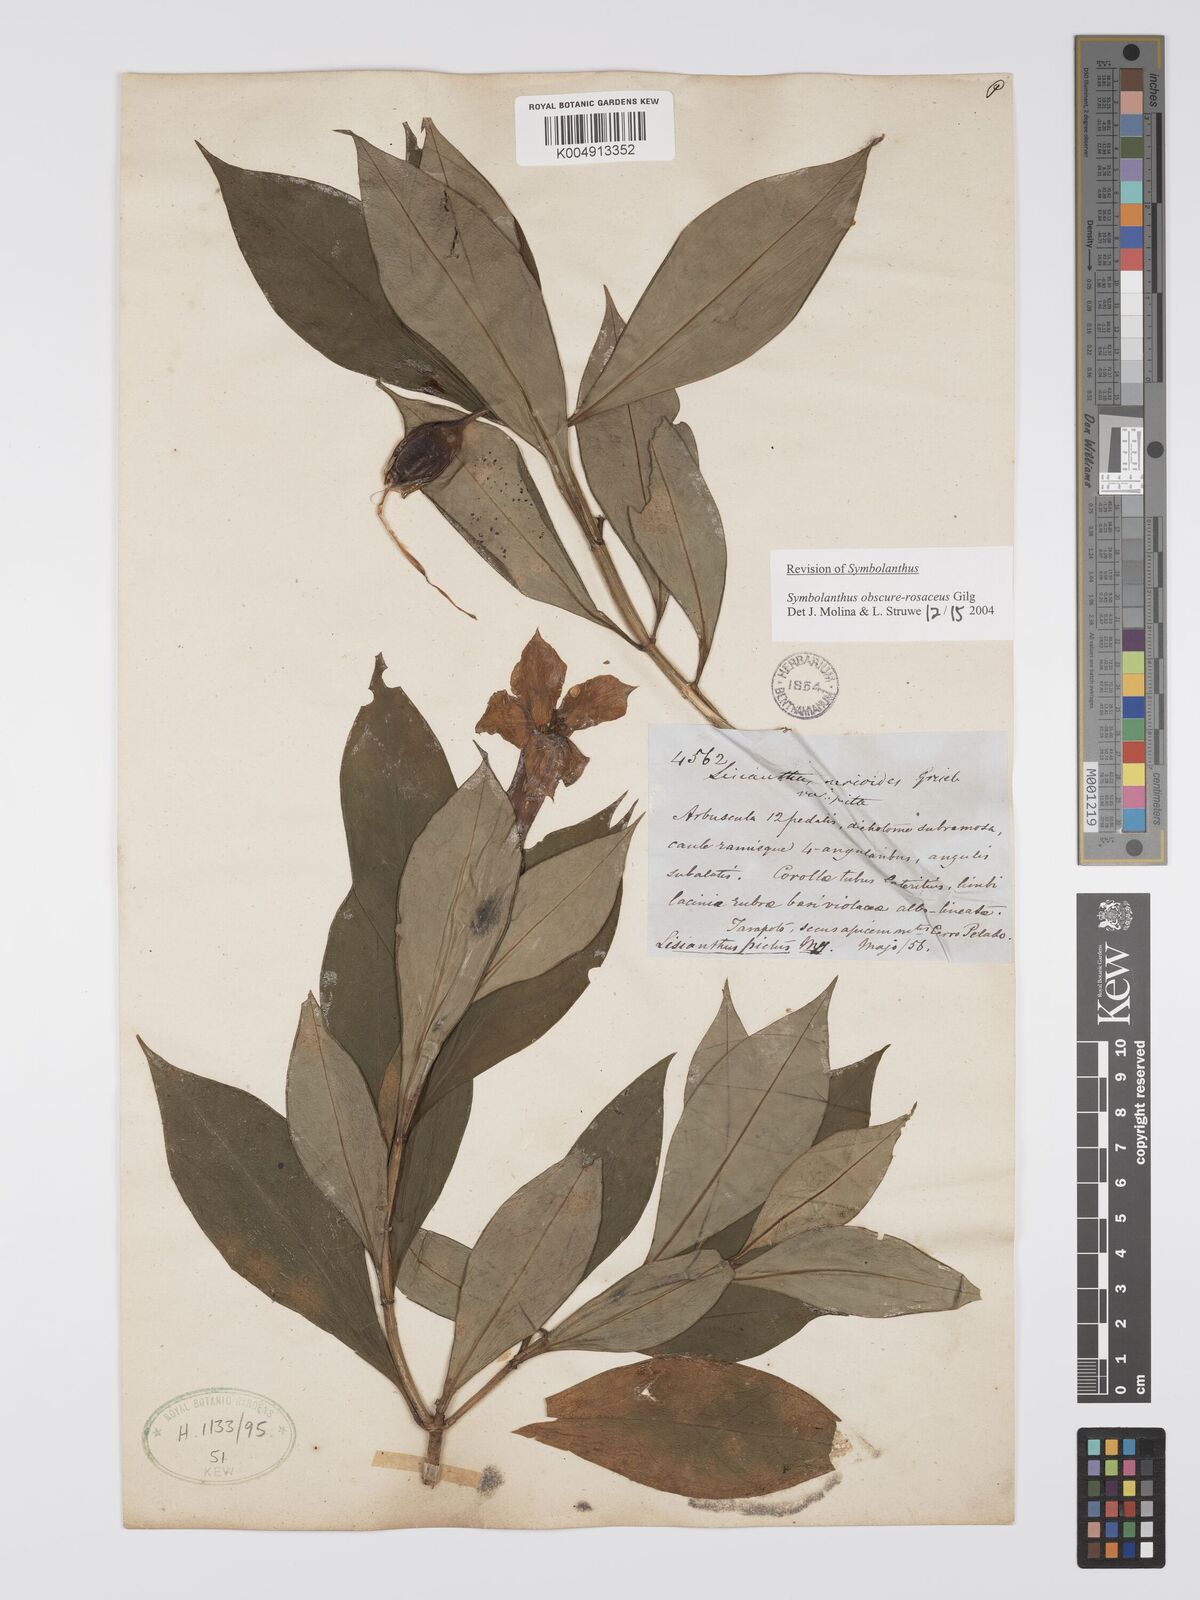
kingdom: Plantae
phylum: Tracheophyta
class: Magnoliopsida
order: Gentianales
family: Gentianaceae
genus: Symbolanthus
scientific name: Symbolanthus calygonus
